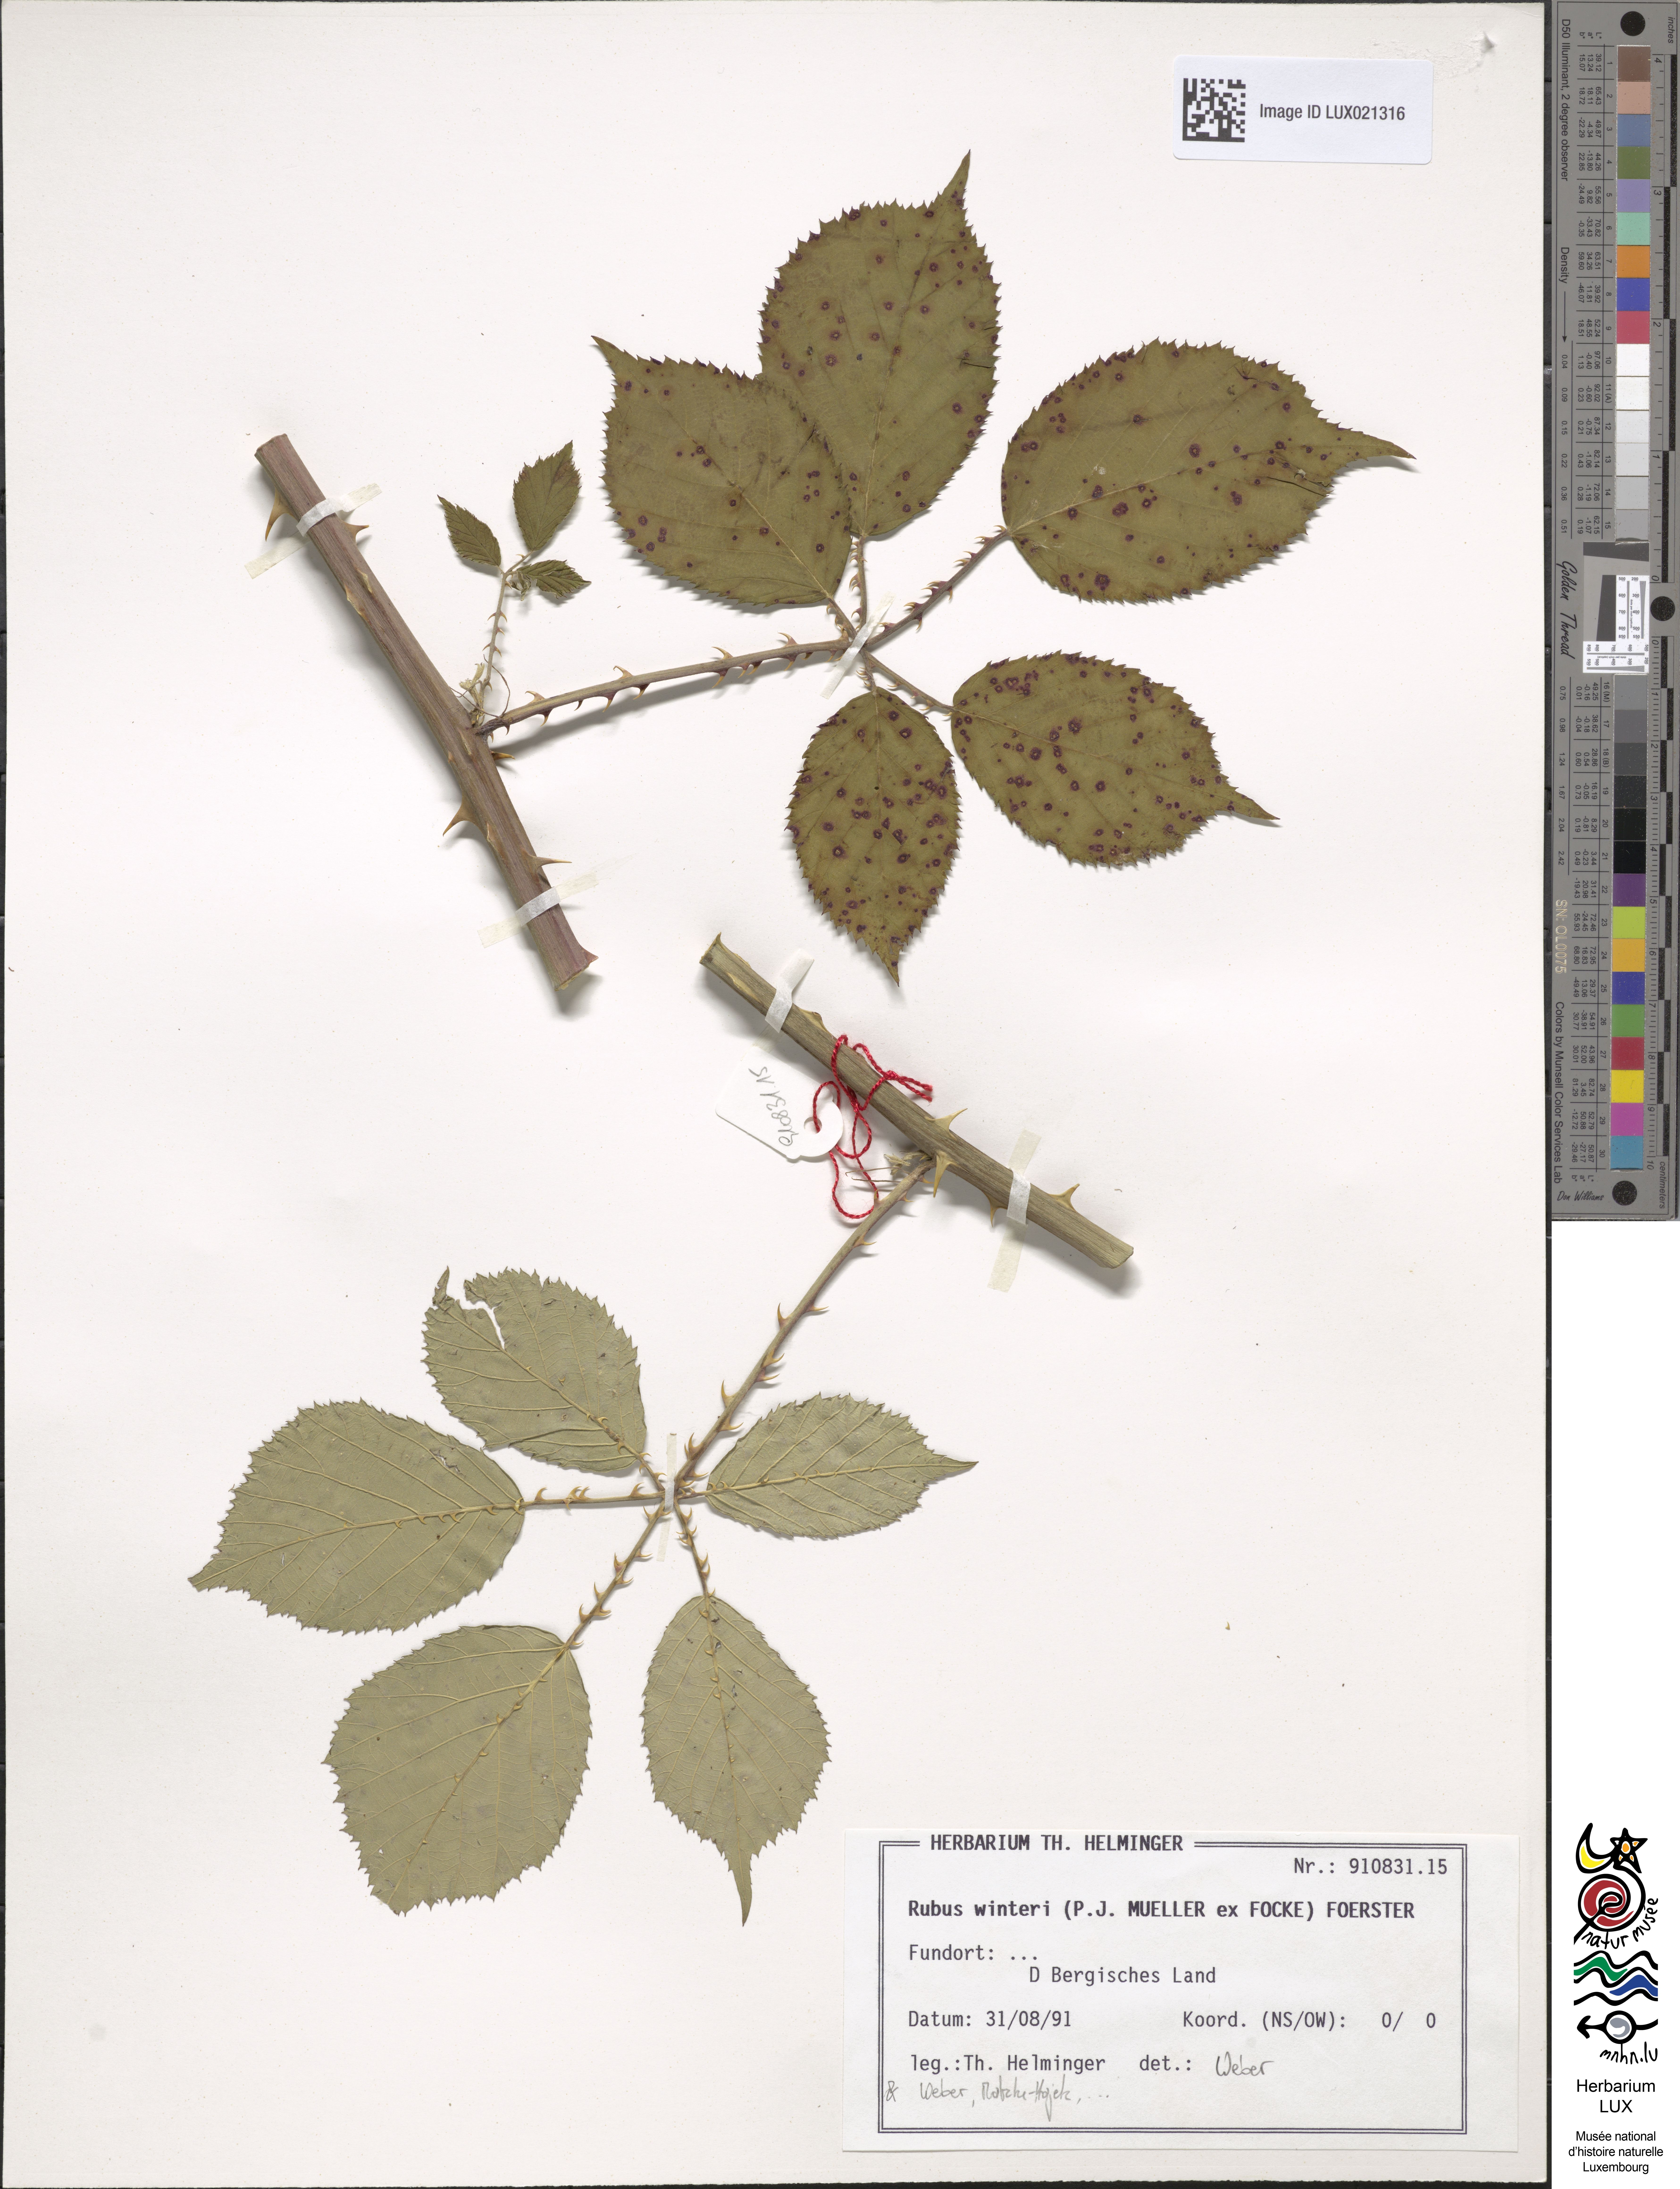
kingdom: Plantae
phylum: Tracheophyta
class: Magnoliopsida
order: Rosales
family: Rosaceae
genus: Rubus
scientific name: Rubus winteri
